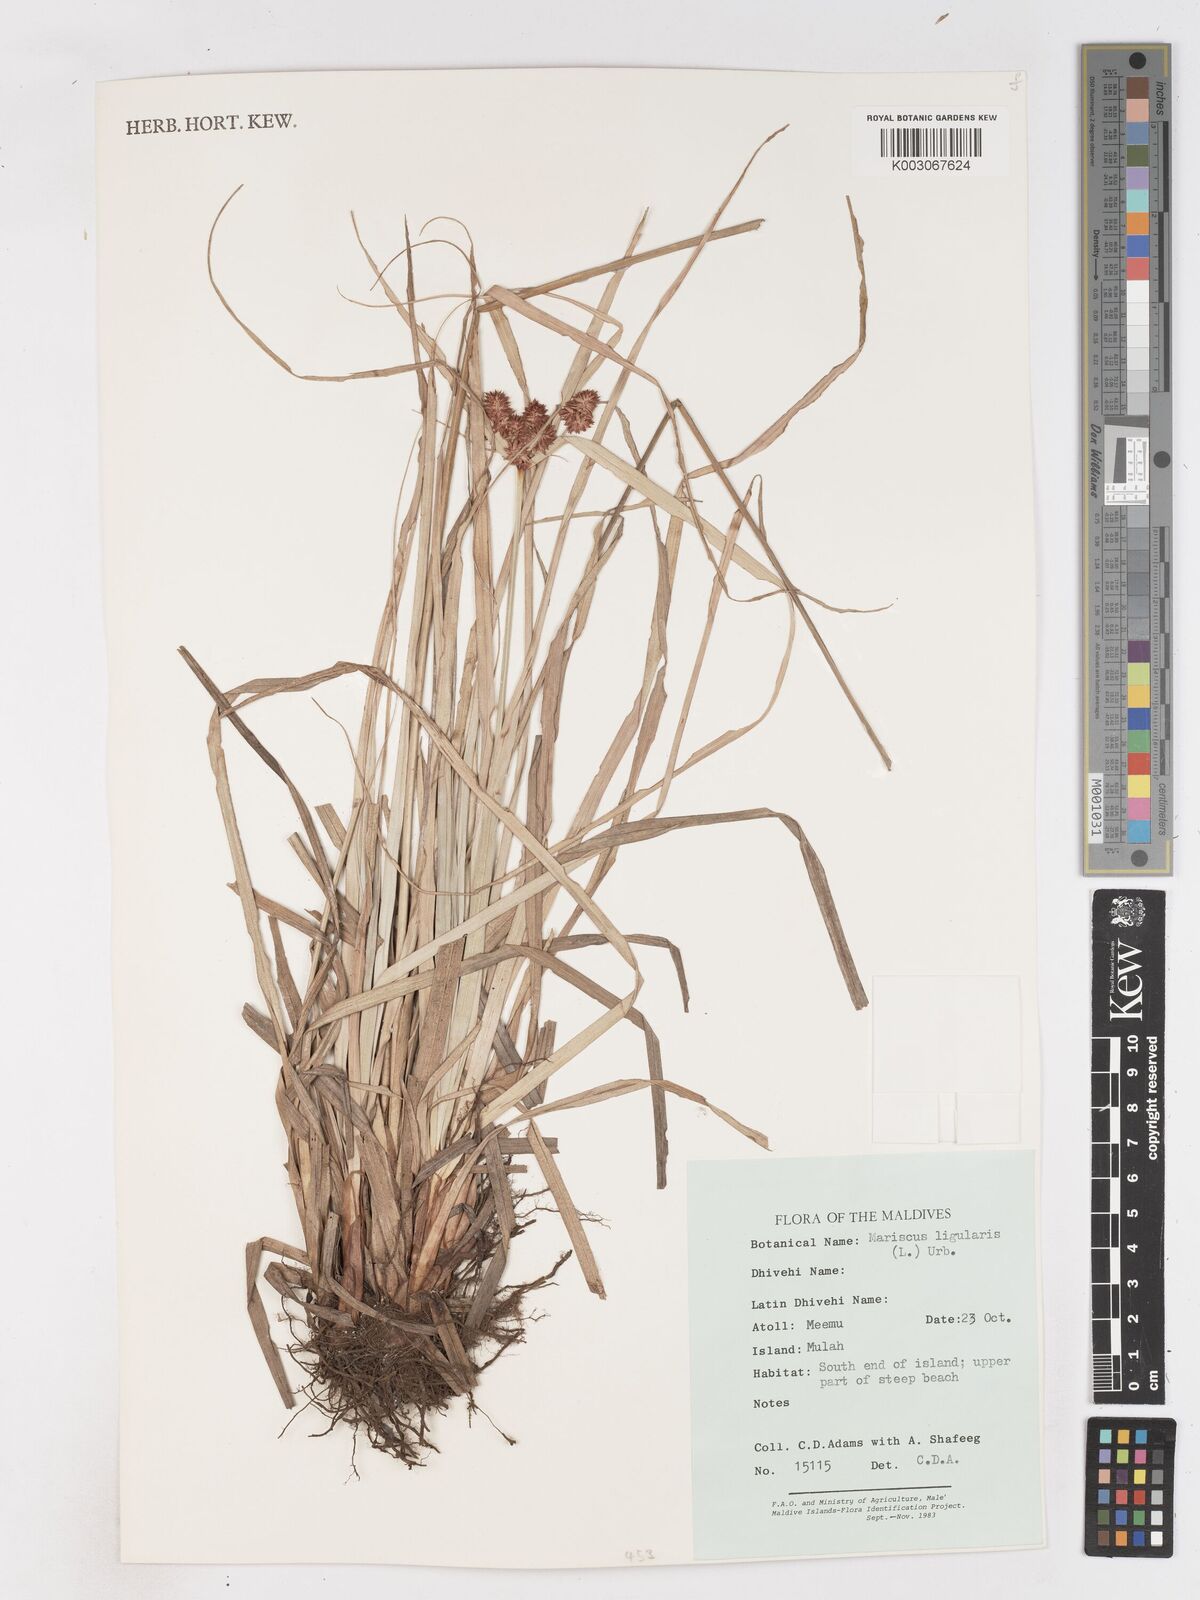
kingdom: Plantae
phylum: Tracheophyta
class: Liliopsida
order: Poales
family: Cyperaceae
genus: Cyperus
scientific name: Cyperus ligularis
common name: Swamp flat sedge
